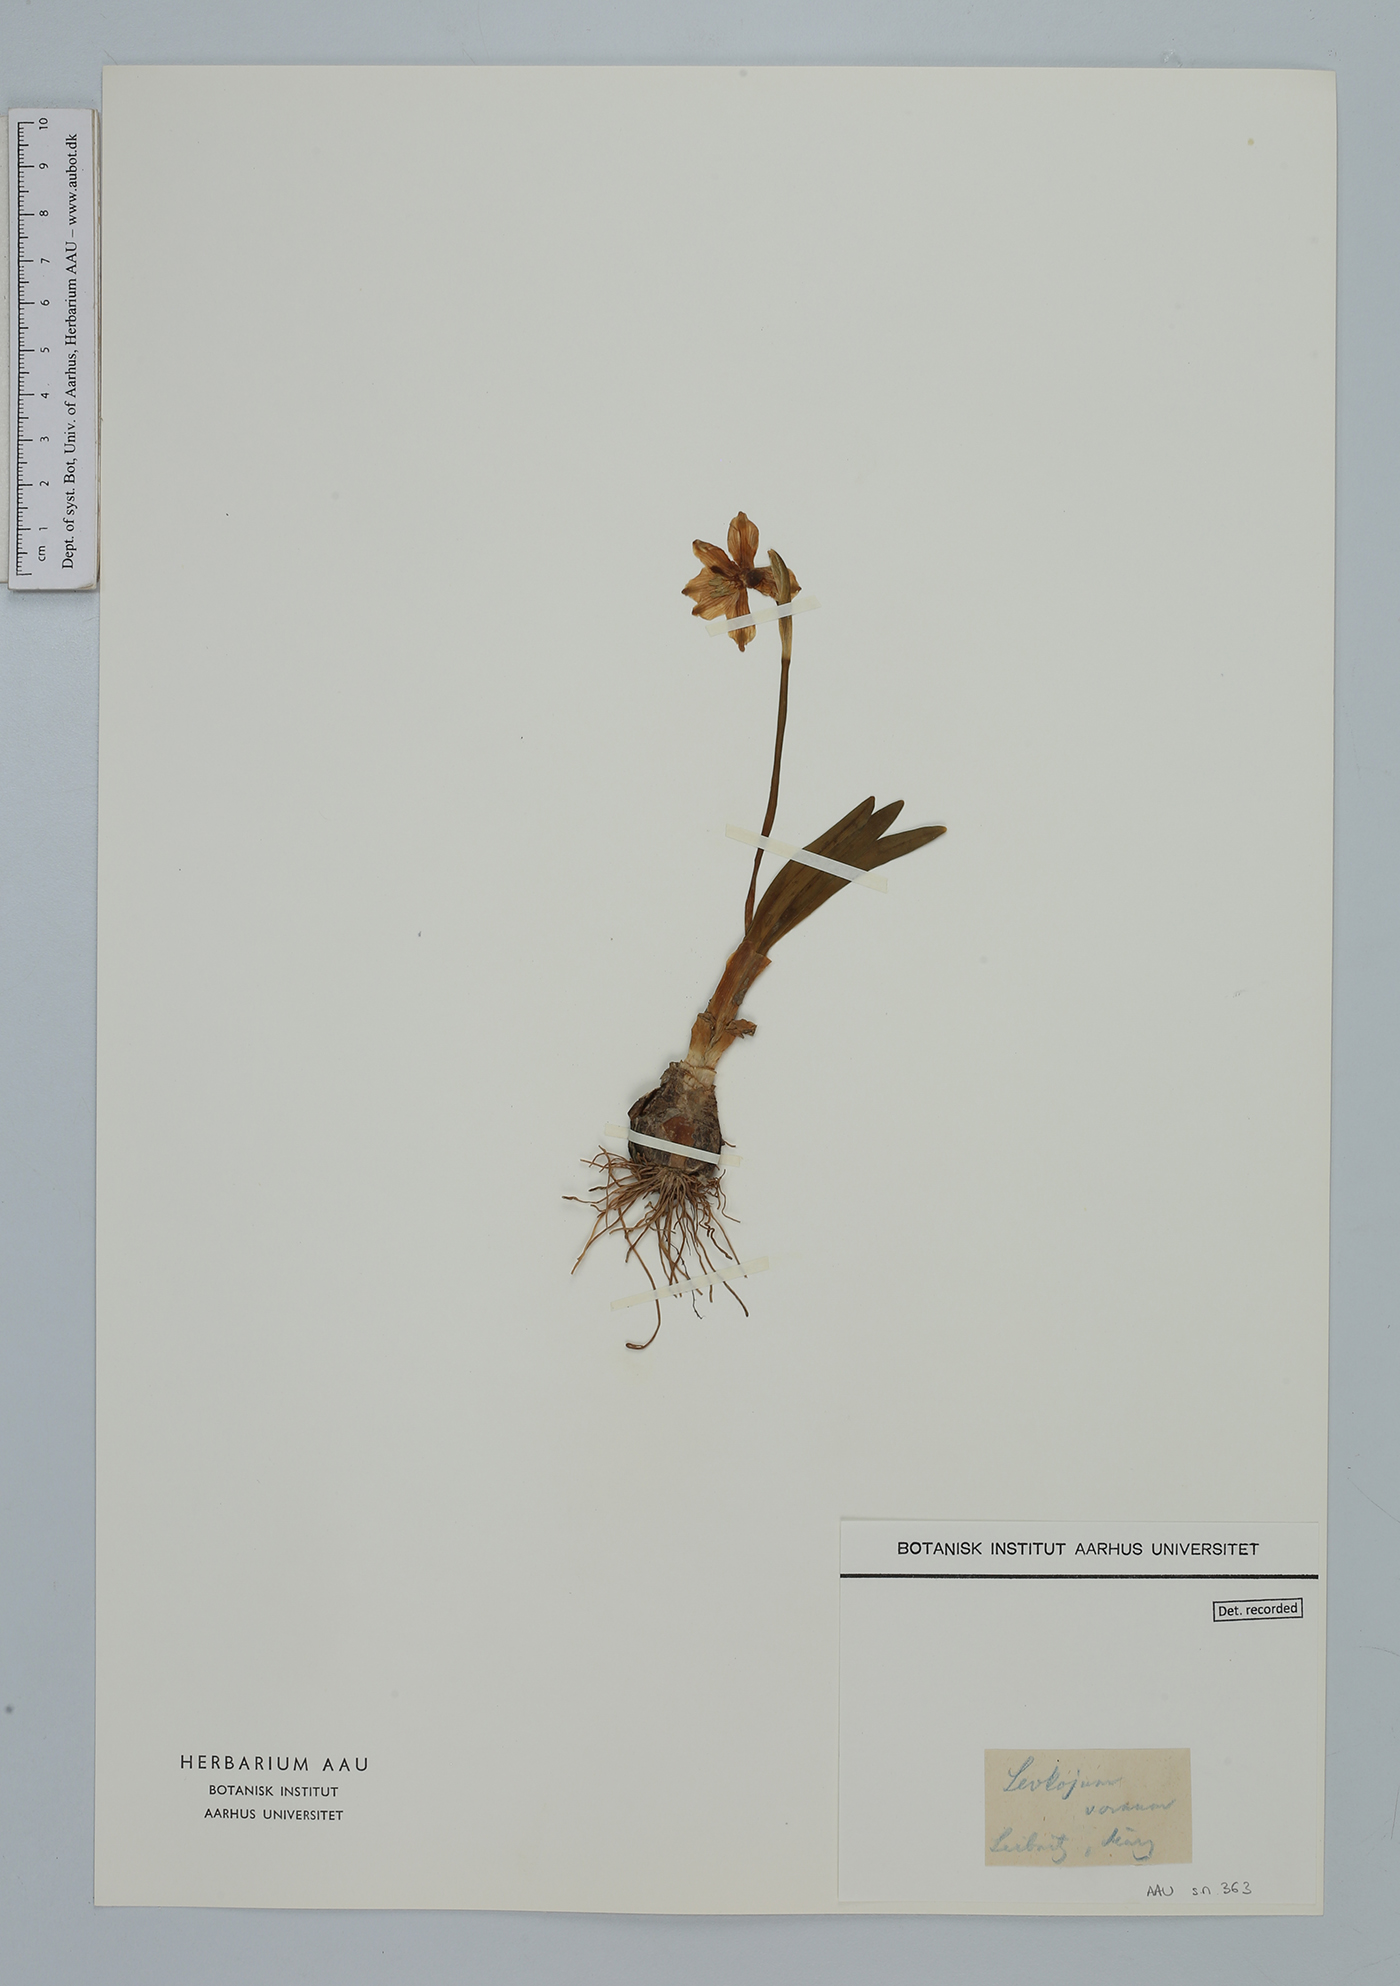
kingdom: Plantae
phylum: Tracheophyta
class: Liliopsida
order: Asparagales
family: Amaryllidaceae
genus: Leucojum
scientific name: Leucojum vernum
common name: Spring snowflake
